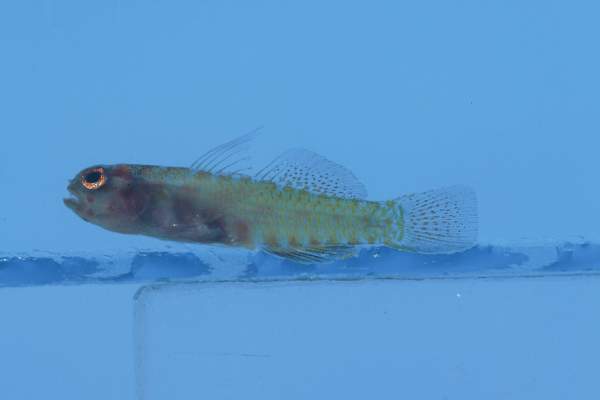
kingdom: Animalia
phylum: Chordata
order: Perciformes
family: Gobiidae
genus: Trimma
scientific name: Trimma mendelssohni
